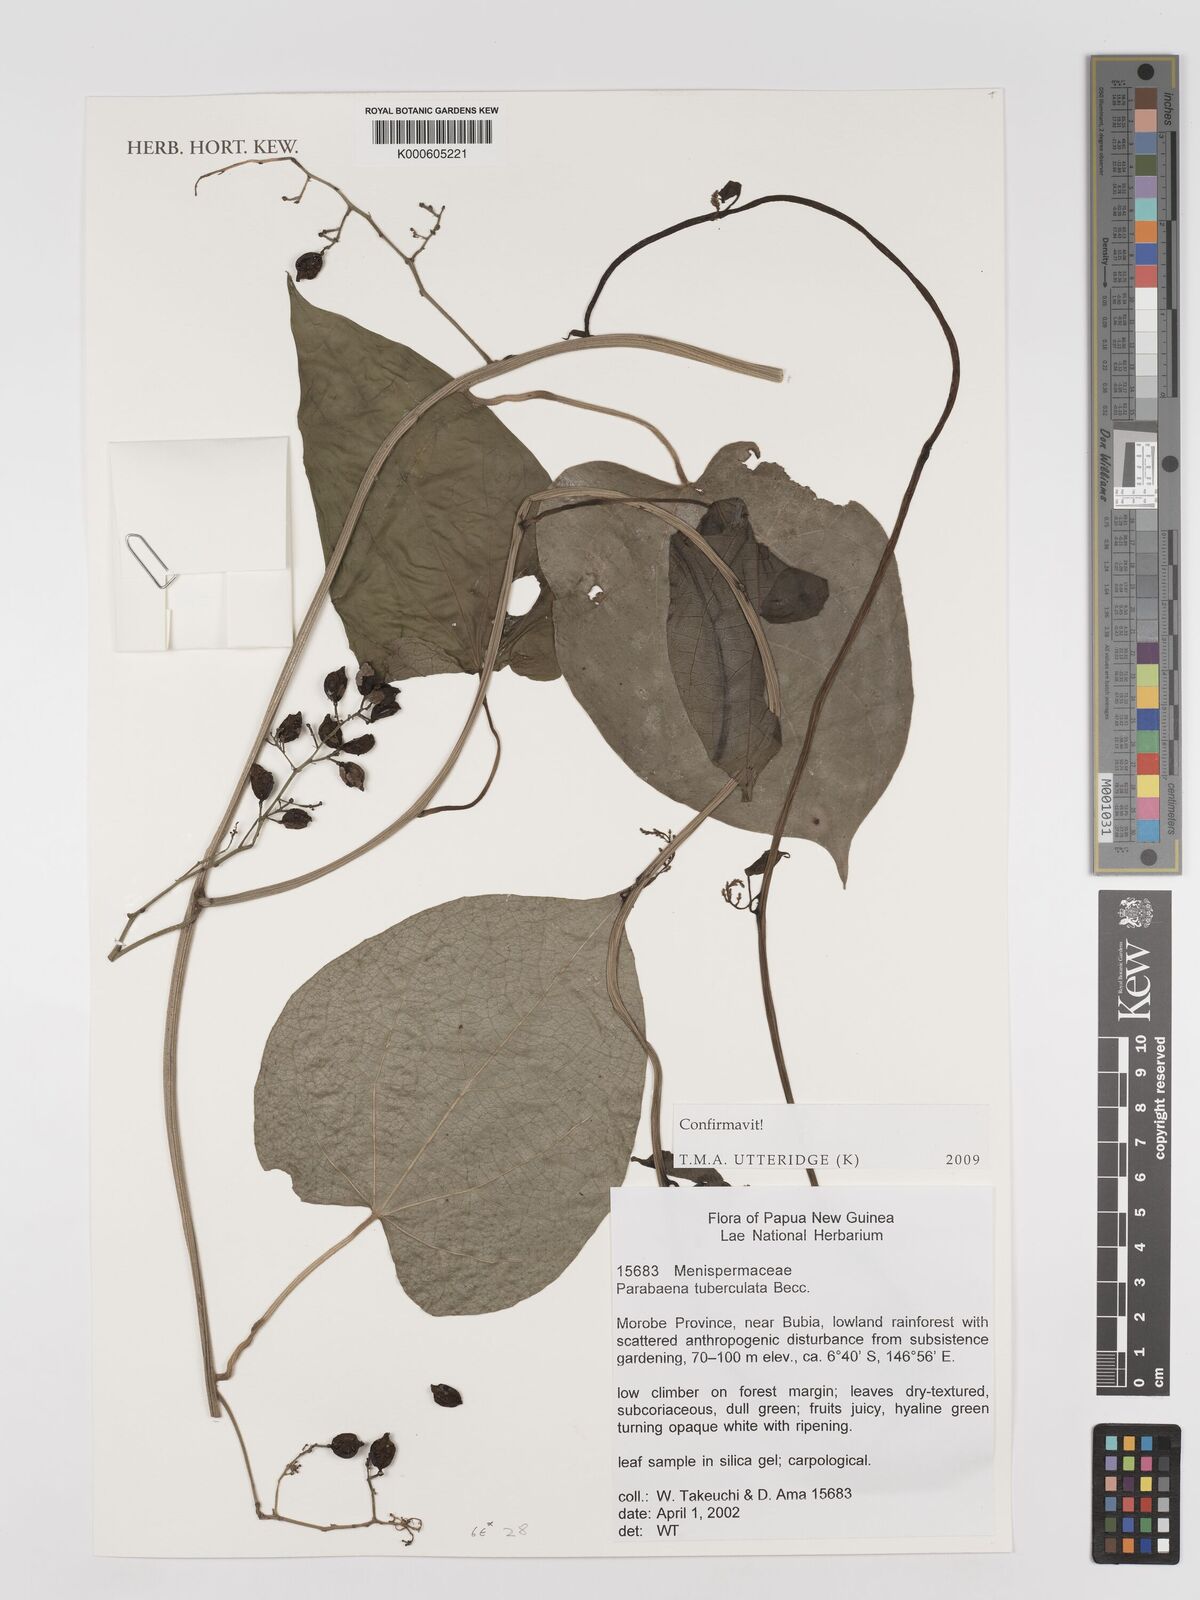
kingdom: Plantae
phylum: Tracheophyta
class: Magnoliopsida
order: Ranunculales
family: Menispermaceae
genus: Parabaena
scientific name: Parabaena tuberculata
